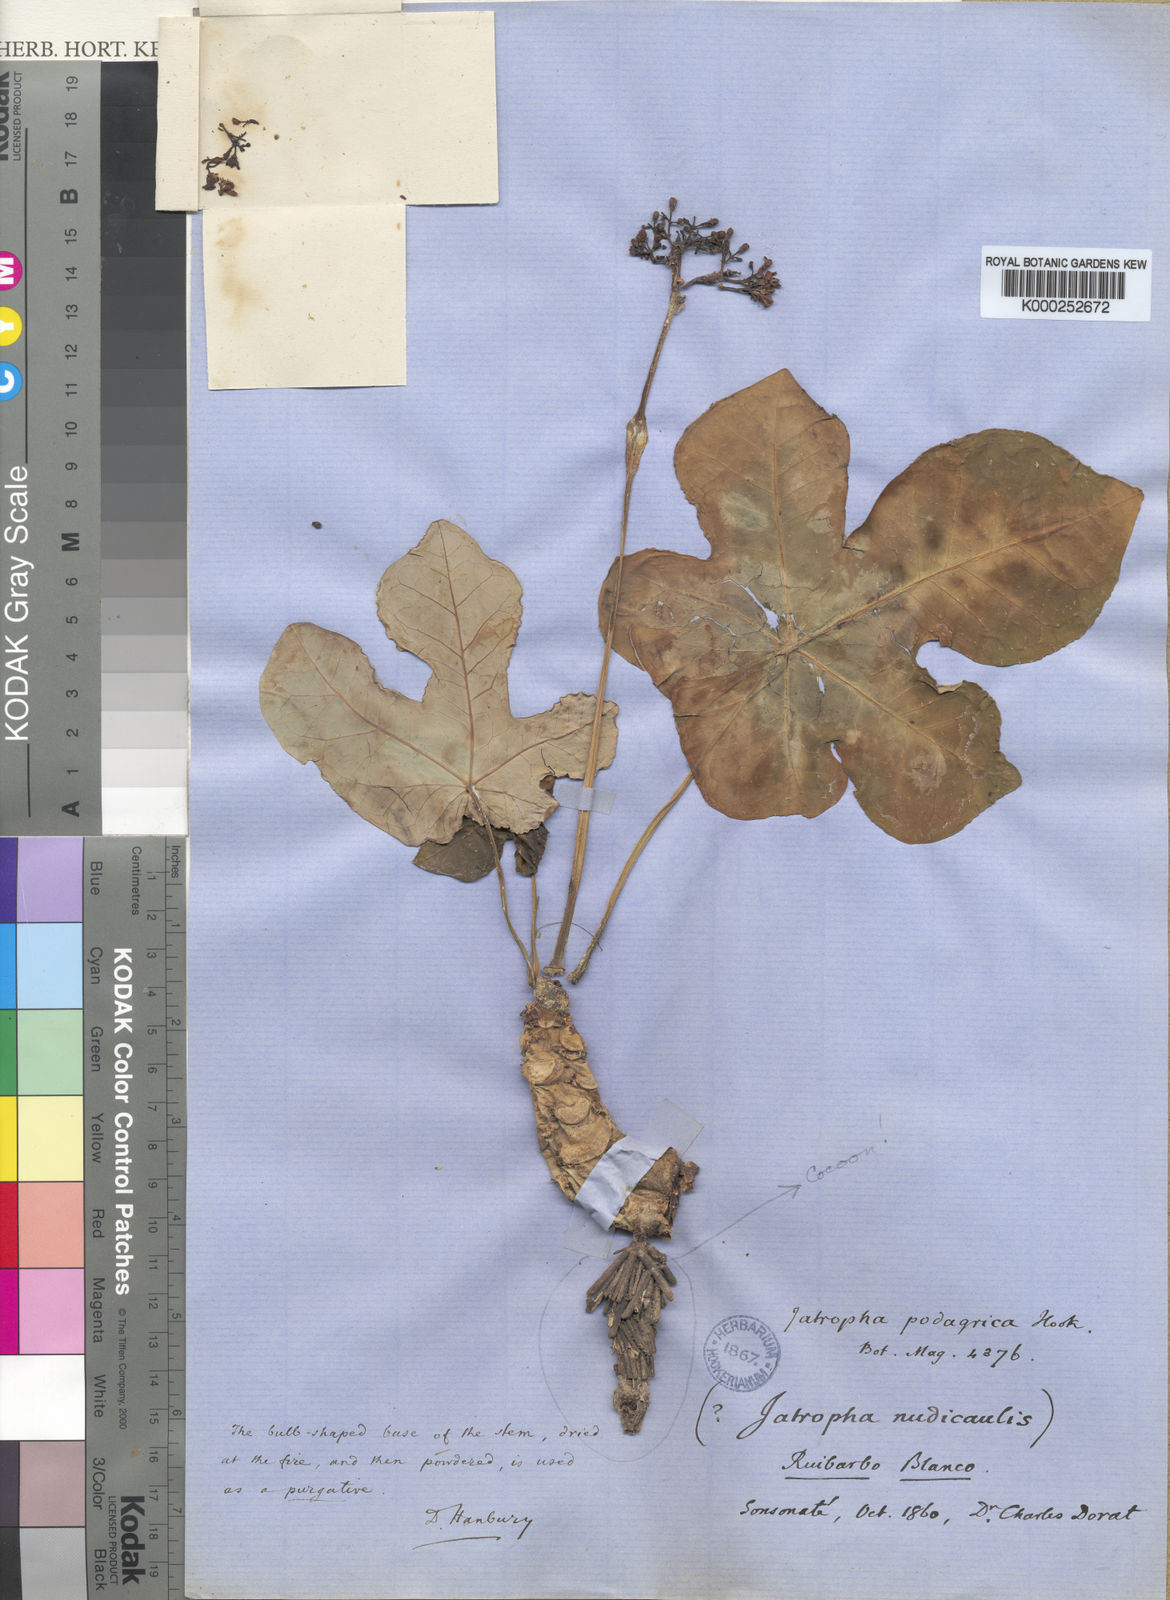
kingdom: Plantae
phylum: Tracheophyta
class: Magnoliopsida
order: Malpighiales
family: Euphorbiaceae
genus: Jatropha
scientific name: Jatropha podagrica
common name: Gout stalk
